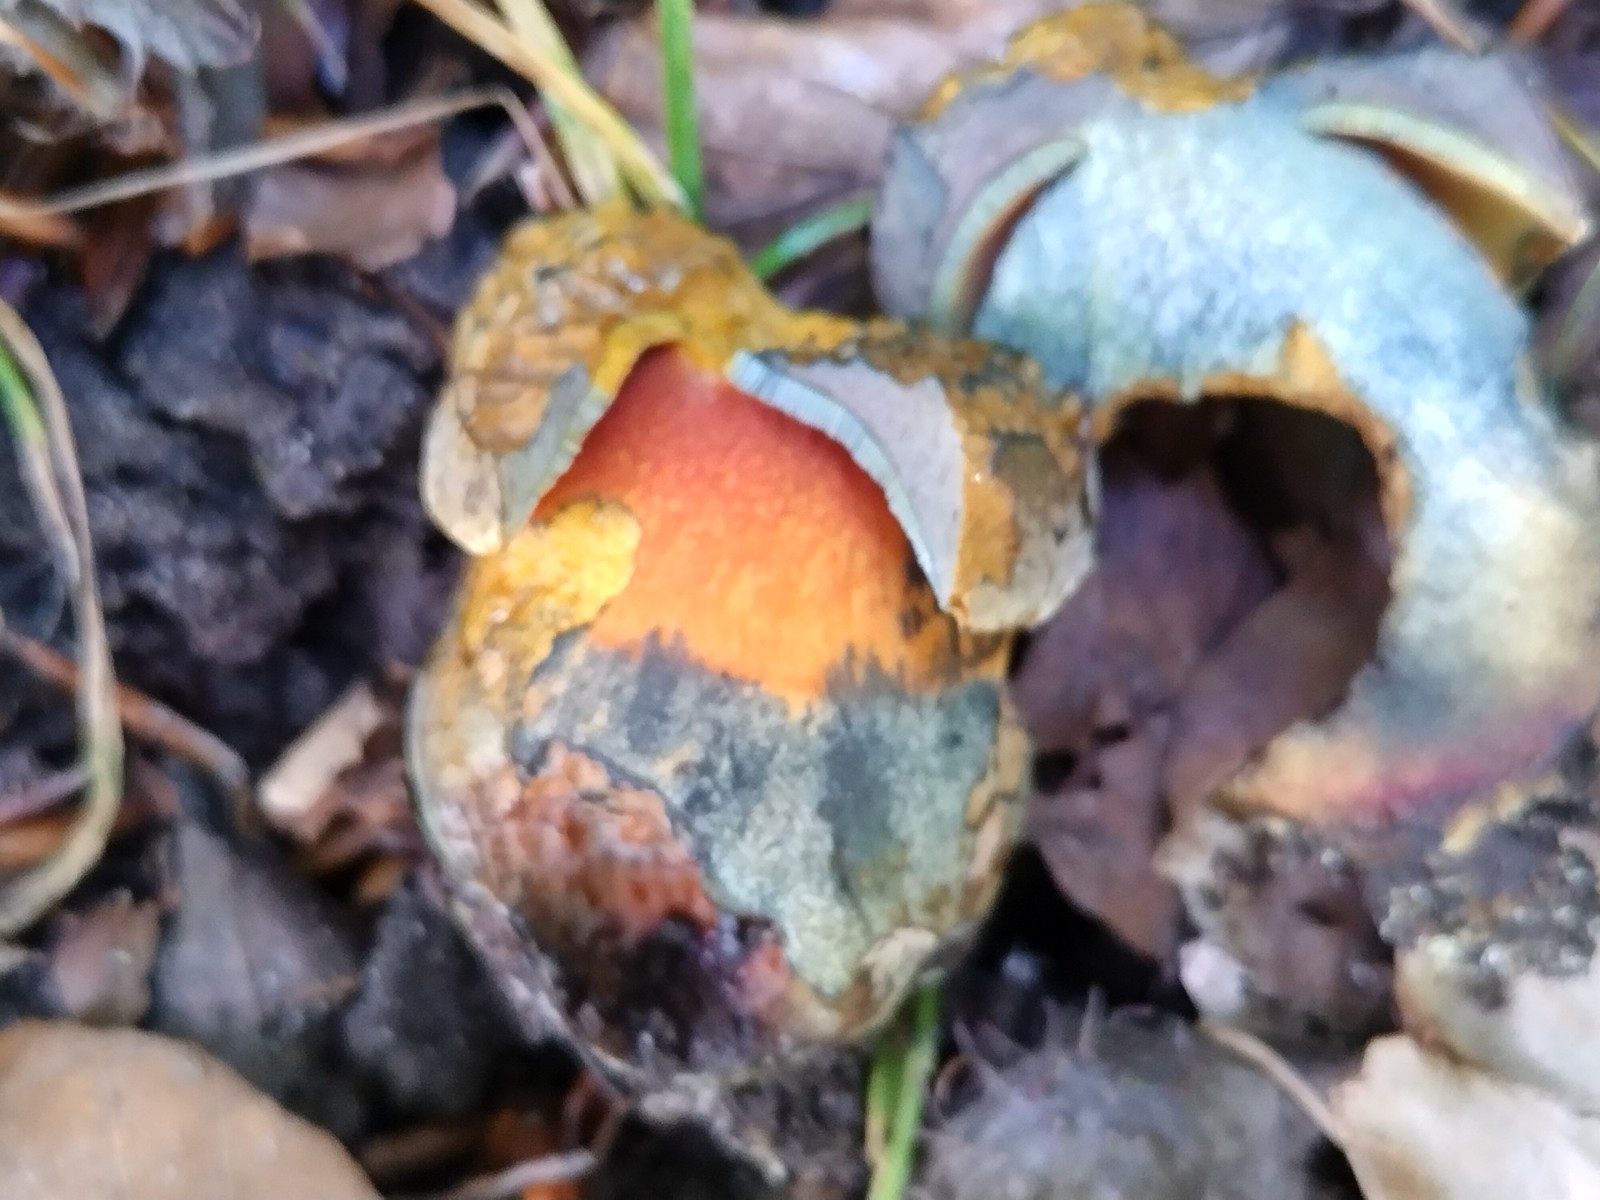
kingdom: Fungi
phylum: Basidiomycota
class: Agaricomycetes
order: Boletales
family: Boletaceae
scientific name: Boletaceae
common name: rørhatfamilien
